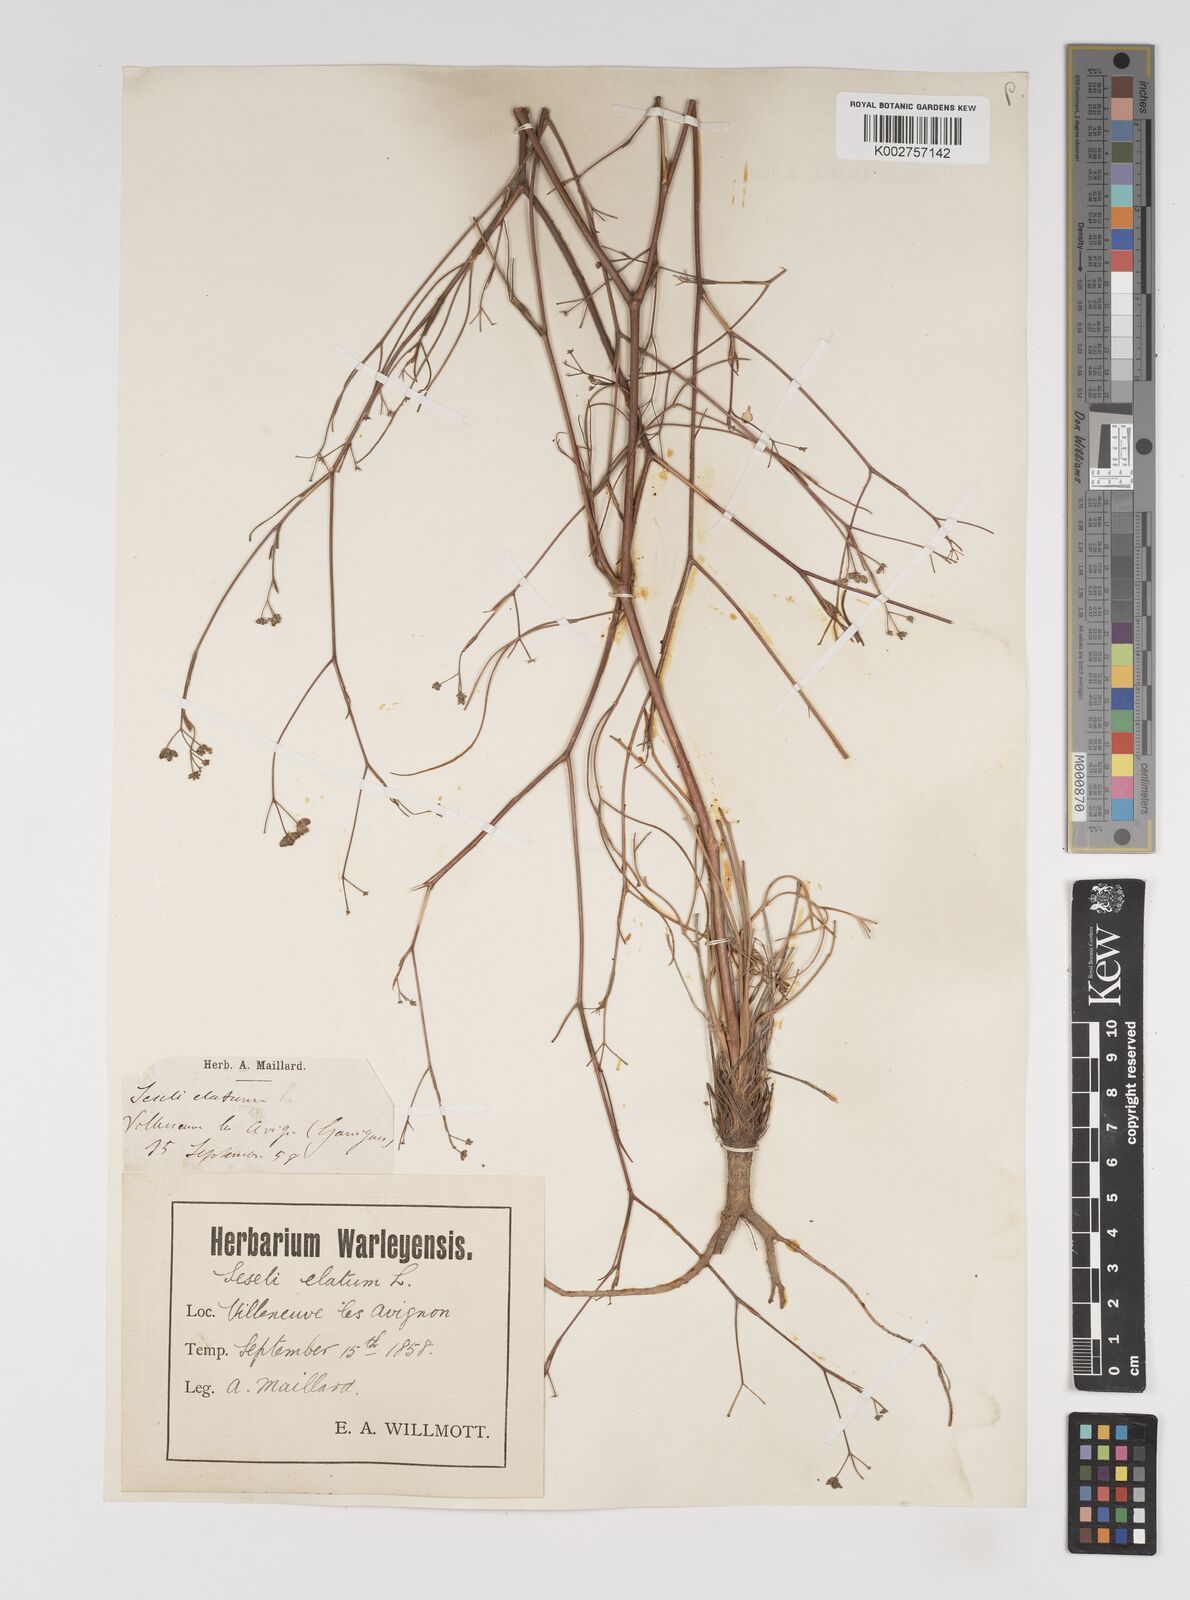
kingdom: Plantae
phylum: Tracheophyta
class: Magnoliopsida
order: Apiales
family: Apiaceae
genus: Seseli
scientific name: Seseli longifolium
